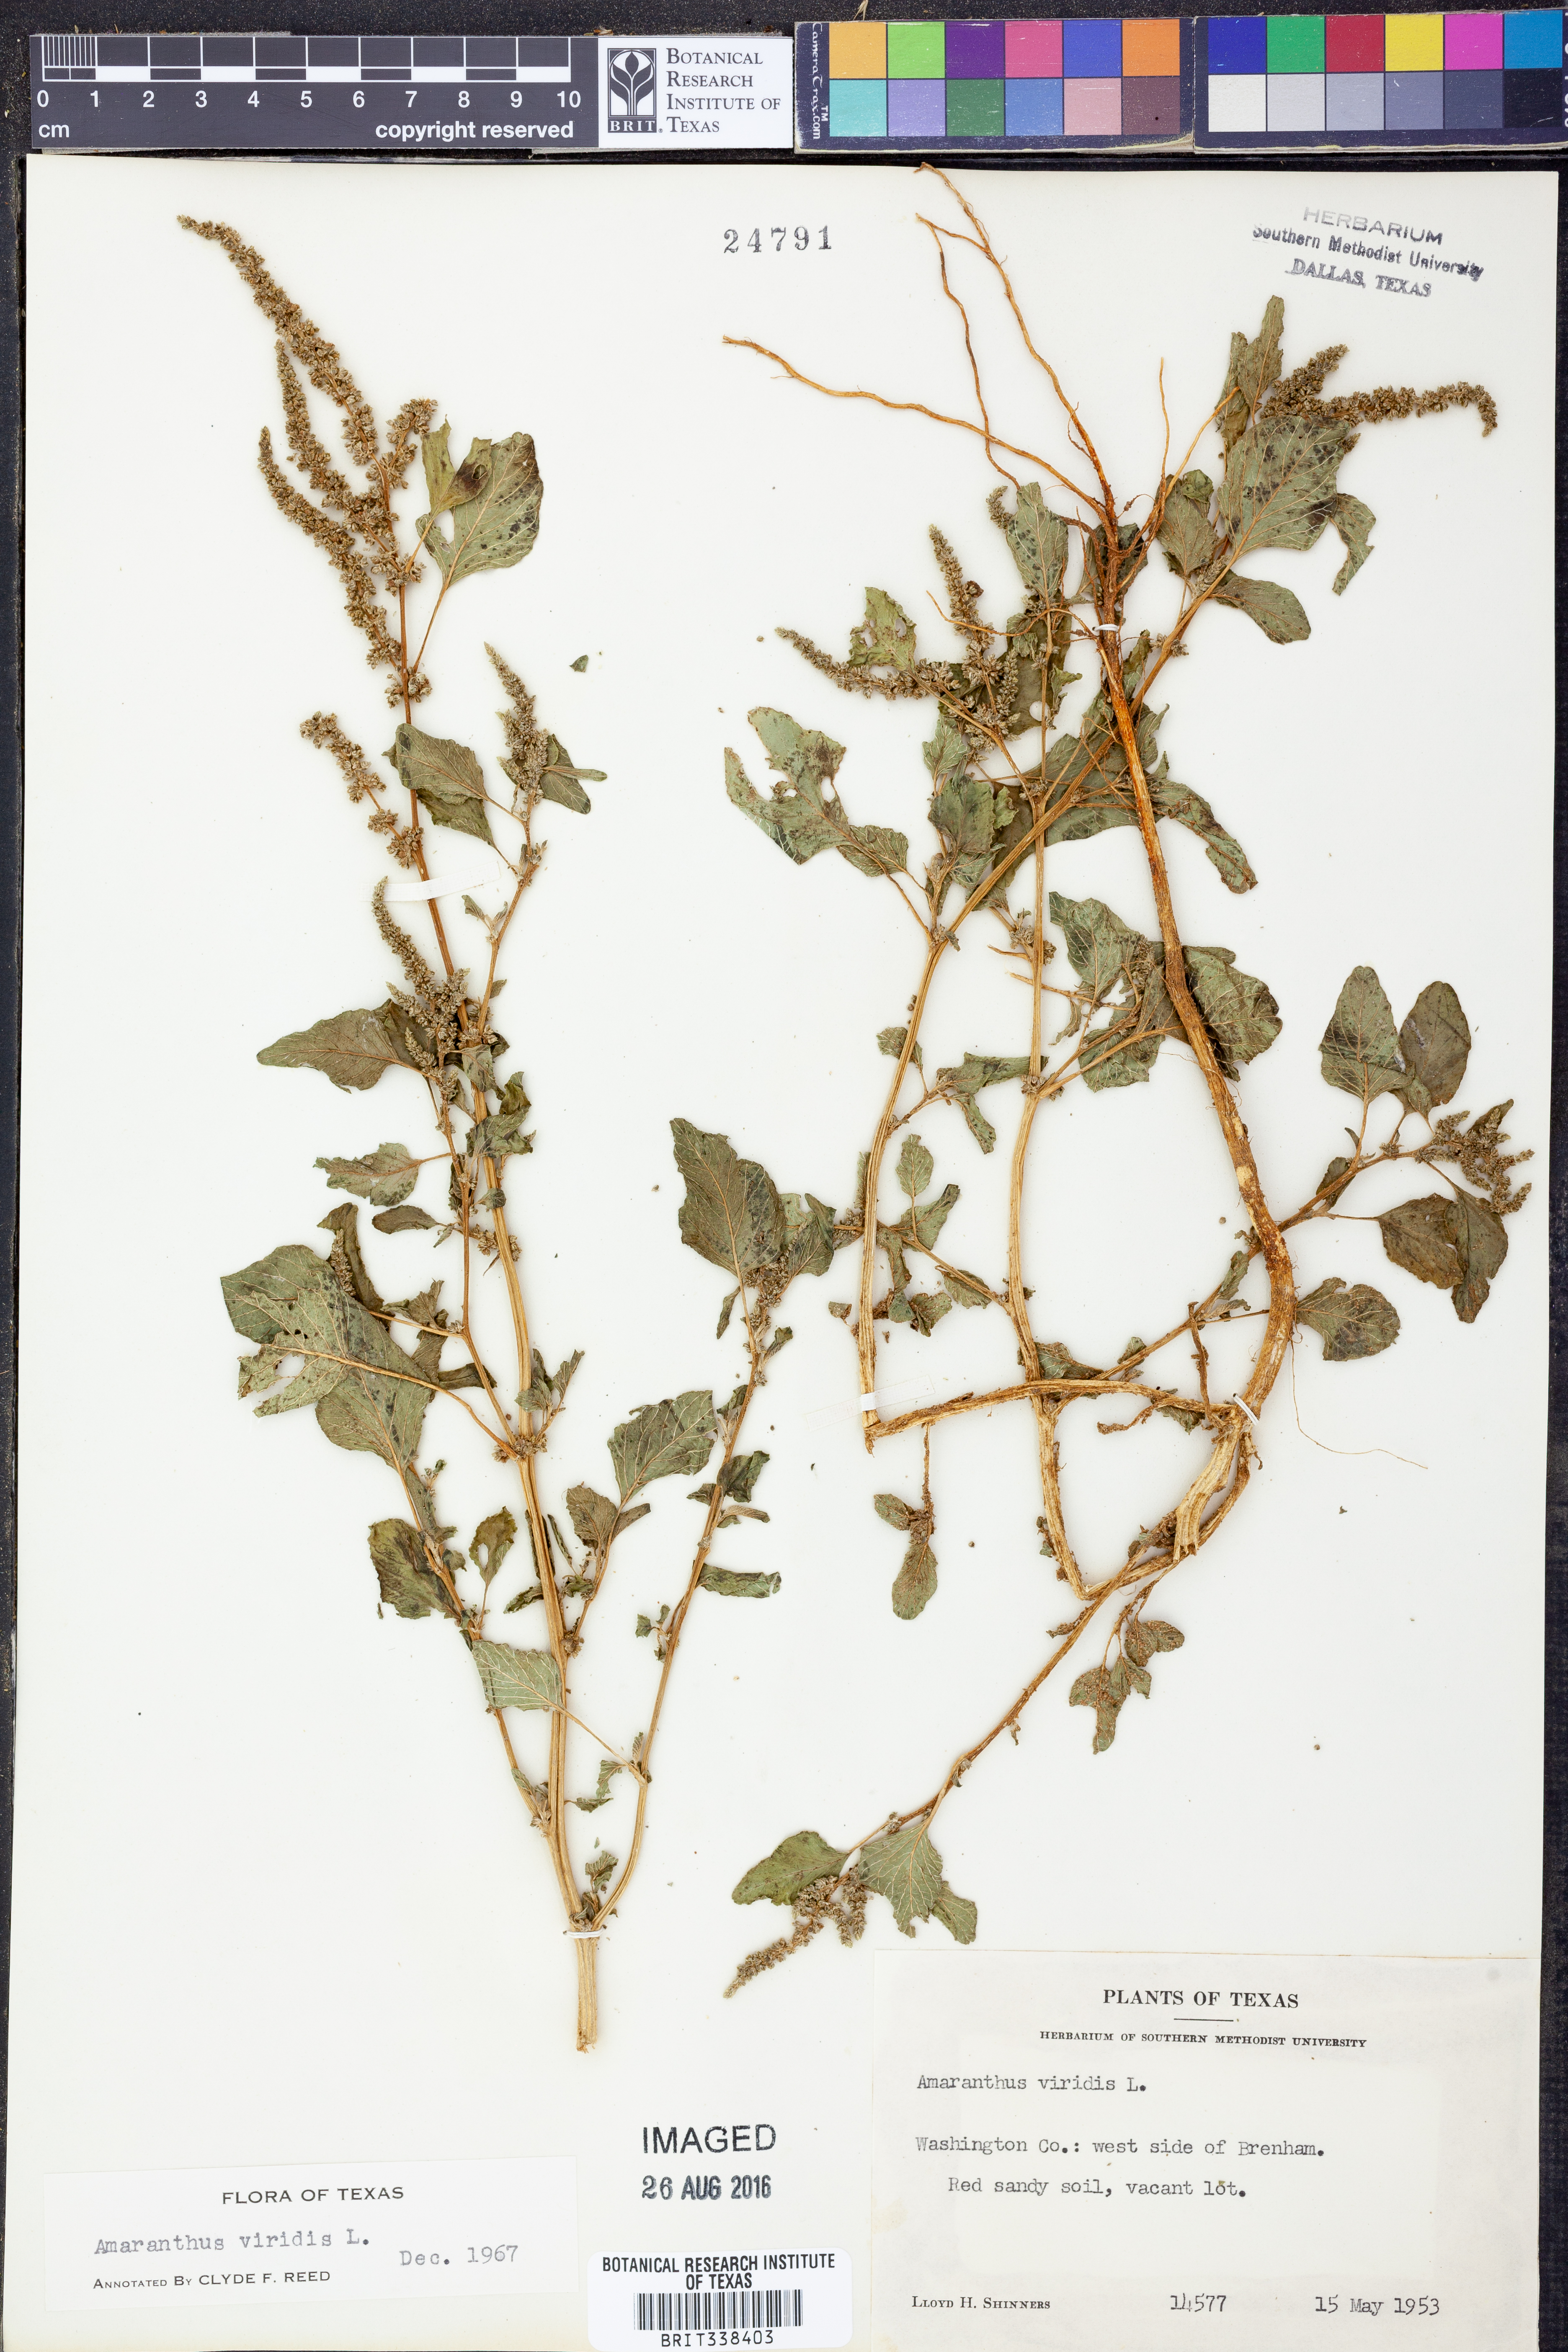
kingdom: Plantae
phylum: Tracheophyta
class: Magnoliopsida
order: Caryophyllales
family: Amaranthaceae
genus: Amaranthus
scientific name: Amaranthus viridis
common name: Slender amaranth
